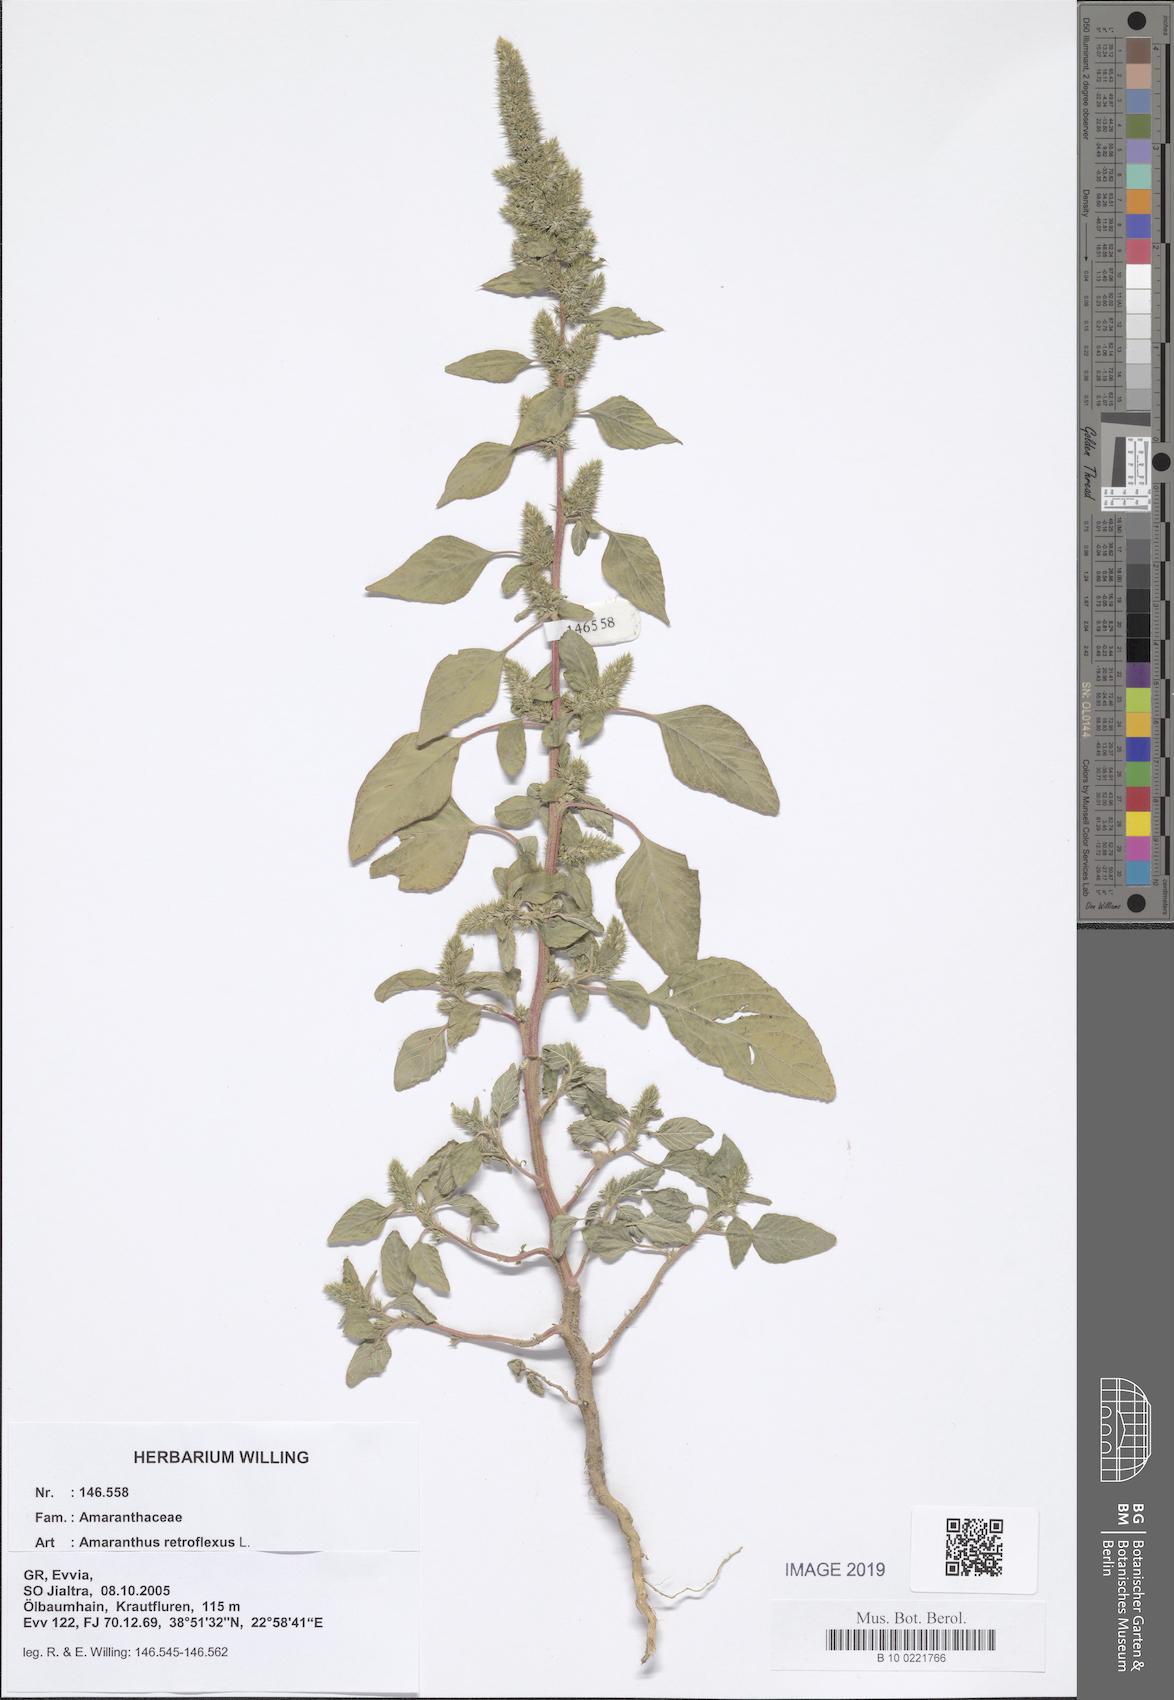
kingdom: Plantae
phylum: Tracheophyta
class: Magnoliopsida
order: Caryophyllales
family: Amaranthaceae
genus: Amaranthus
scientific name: Amaranthus retroflexus
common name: Redroot amaranth
